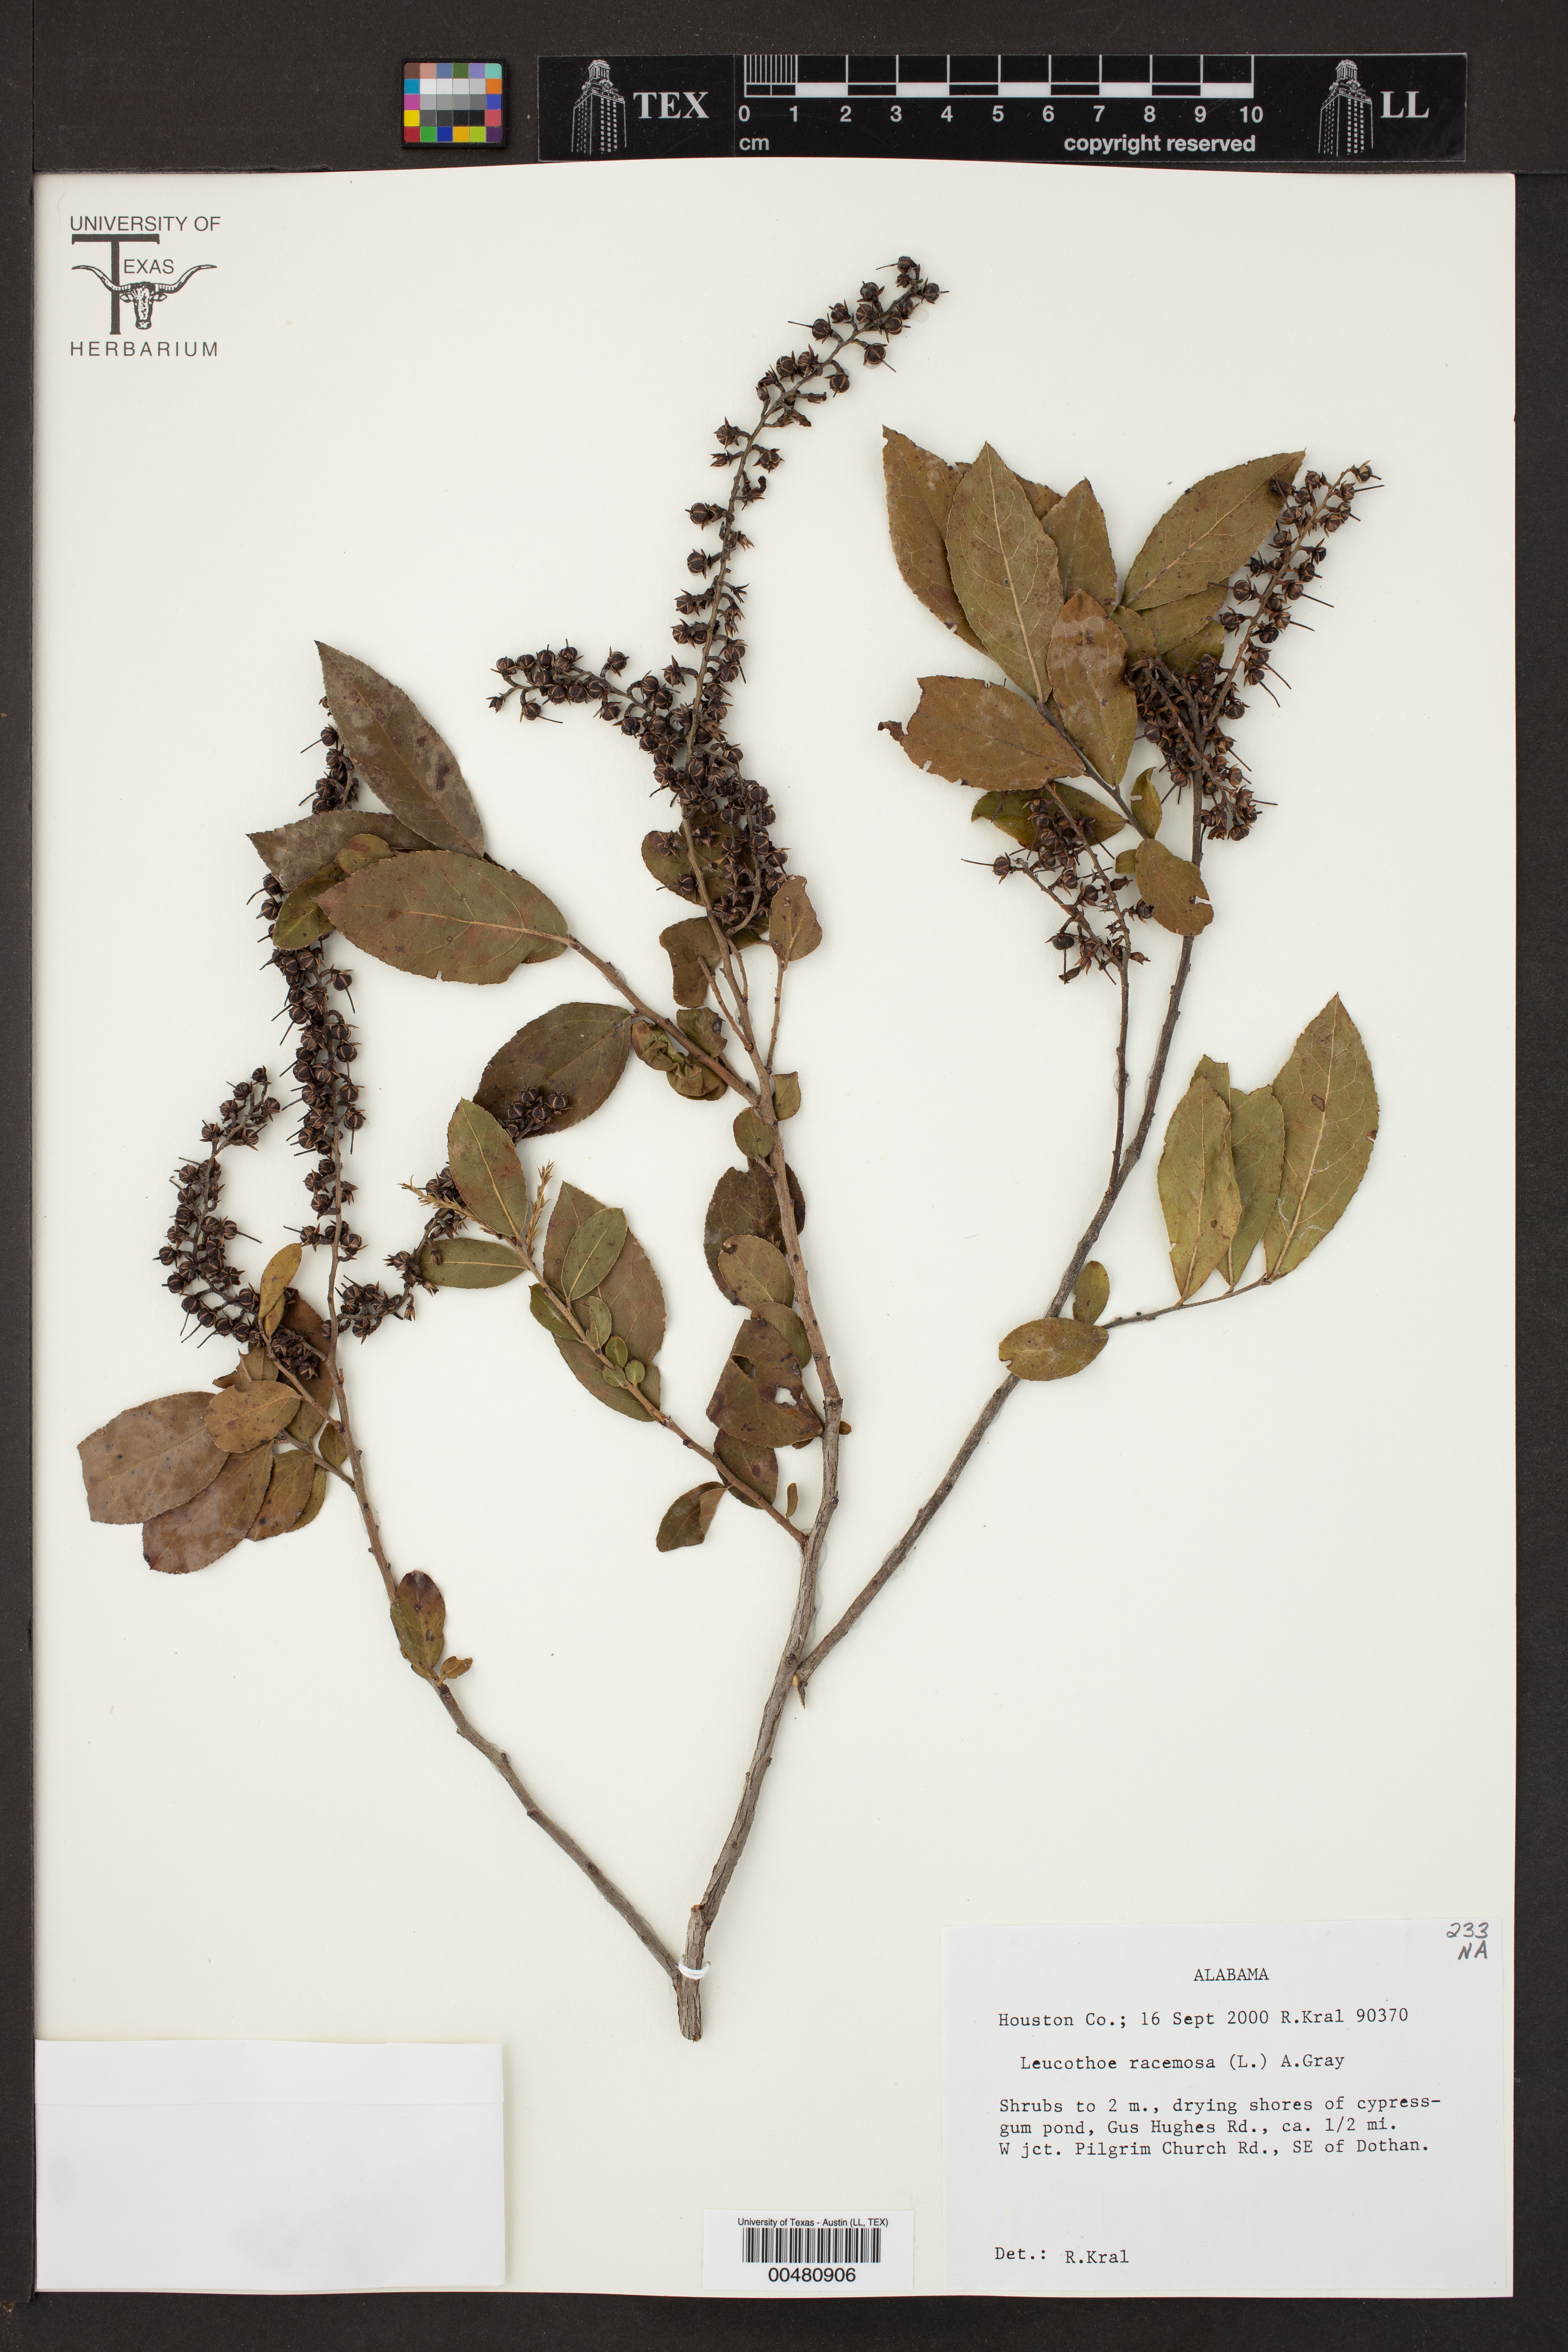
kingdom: Plantae
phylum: Tracheophyta
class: Magnoliopsida
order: Ericales
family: Ericaceae
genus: Eubotrys
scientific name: Eubotrys racemosa
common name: Fetterbush
